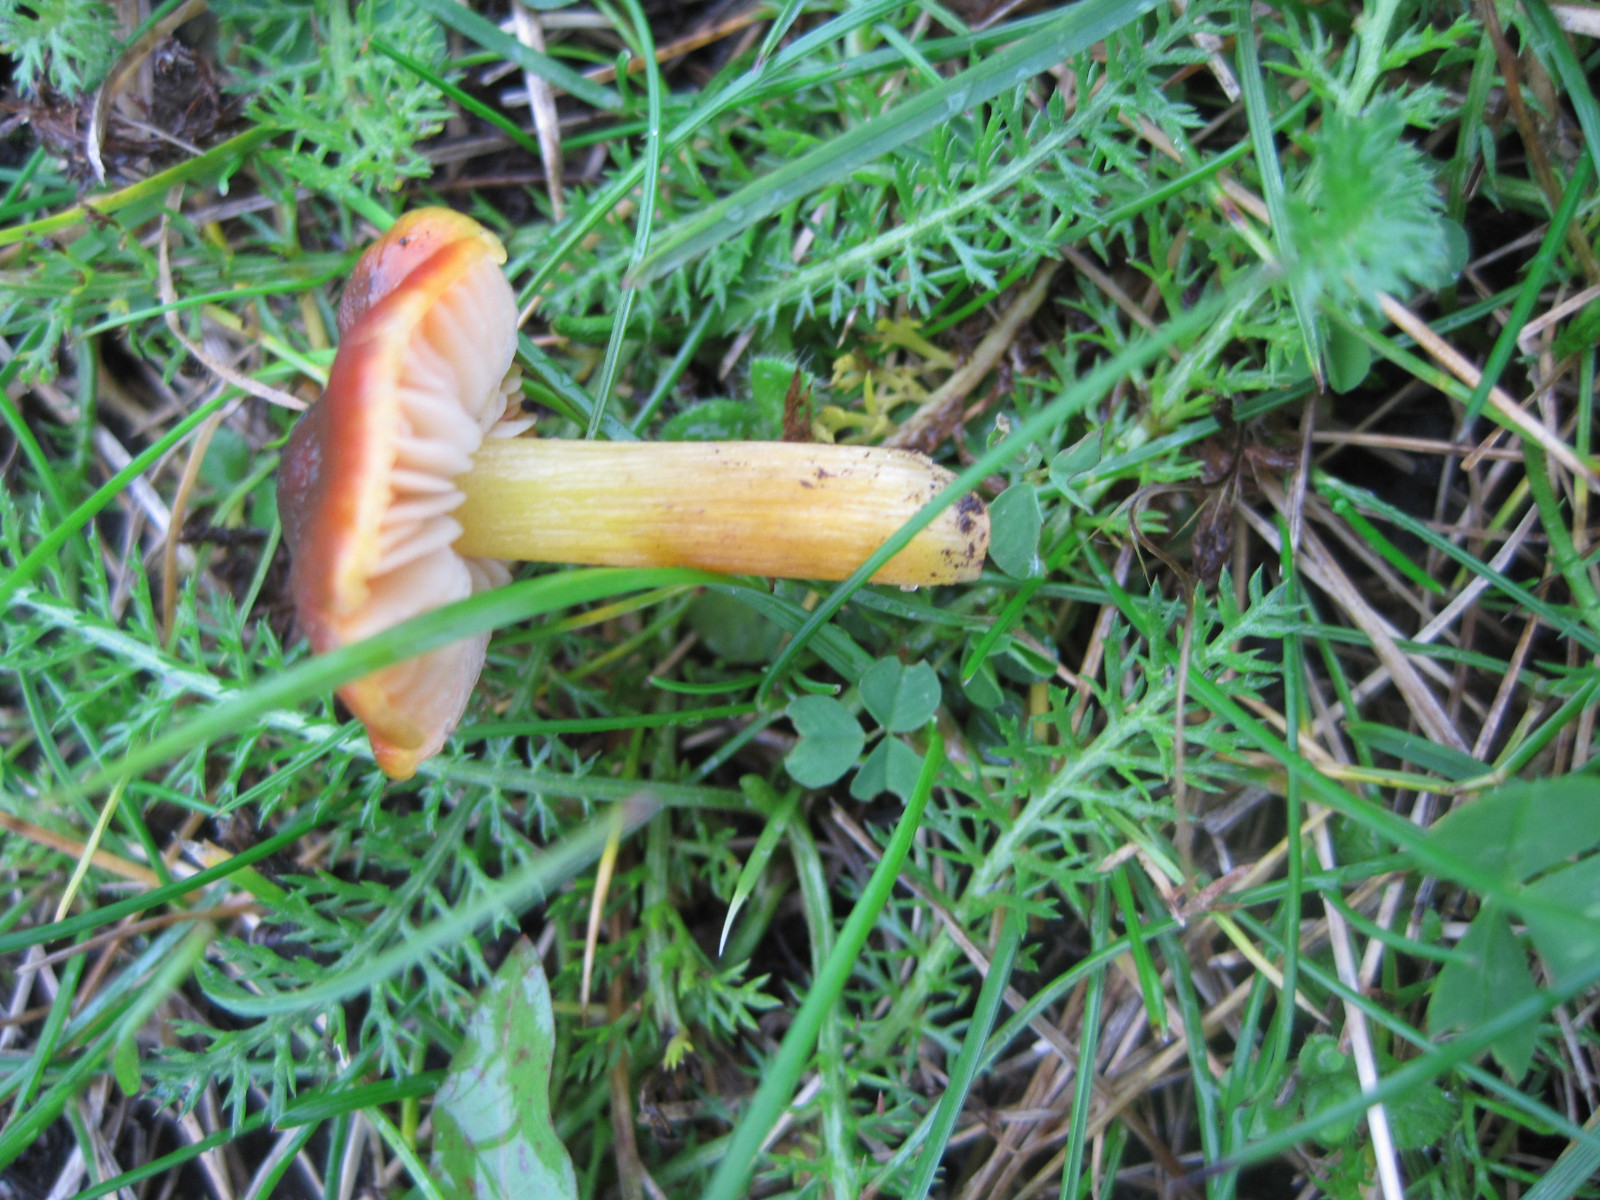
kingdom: Fungi
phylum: Basidiomycota
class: Agaricomycetes
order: Agaricales
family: Hygrophoraceae
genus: Hygrocybe
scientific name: Hygrocybe conica
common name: kegle-vokshat
